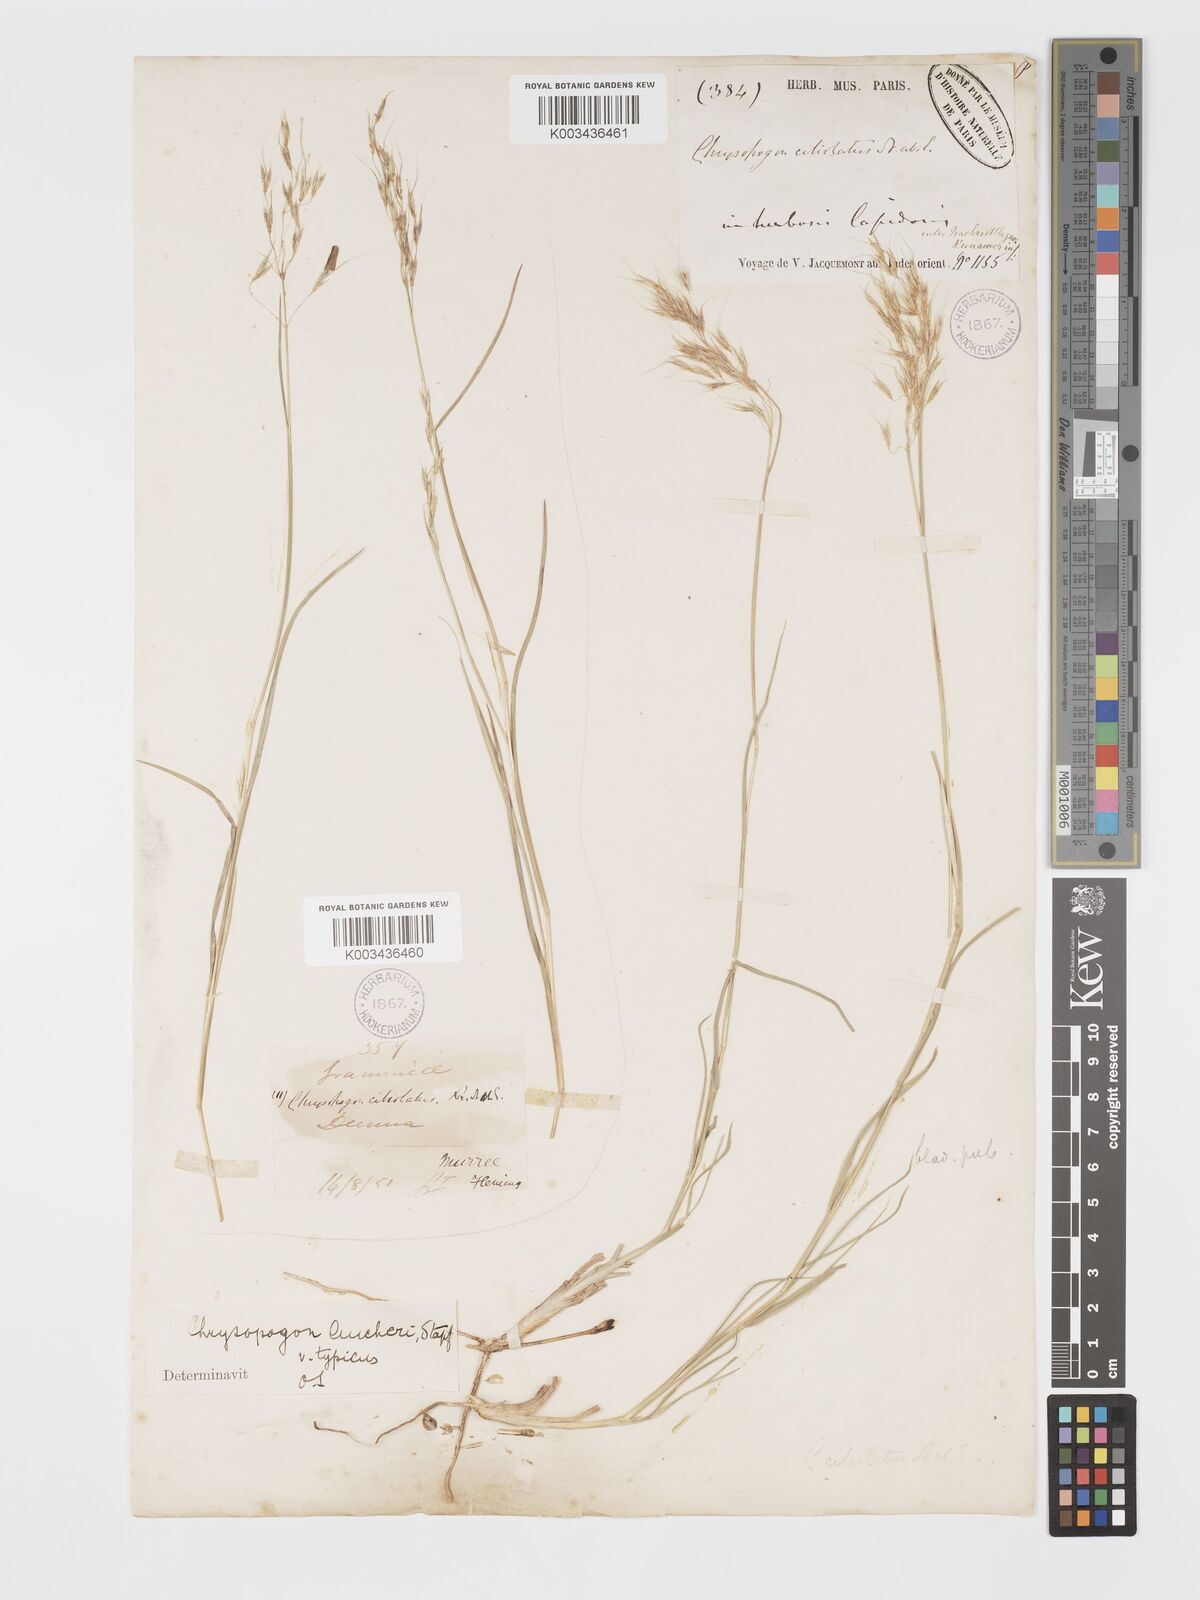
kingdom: Plantae
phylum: Tracheophyta
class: Liliopsida
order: Poales
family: Poaceae
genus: Chrysopogon
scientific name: Chrysopogon aucheri
